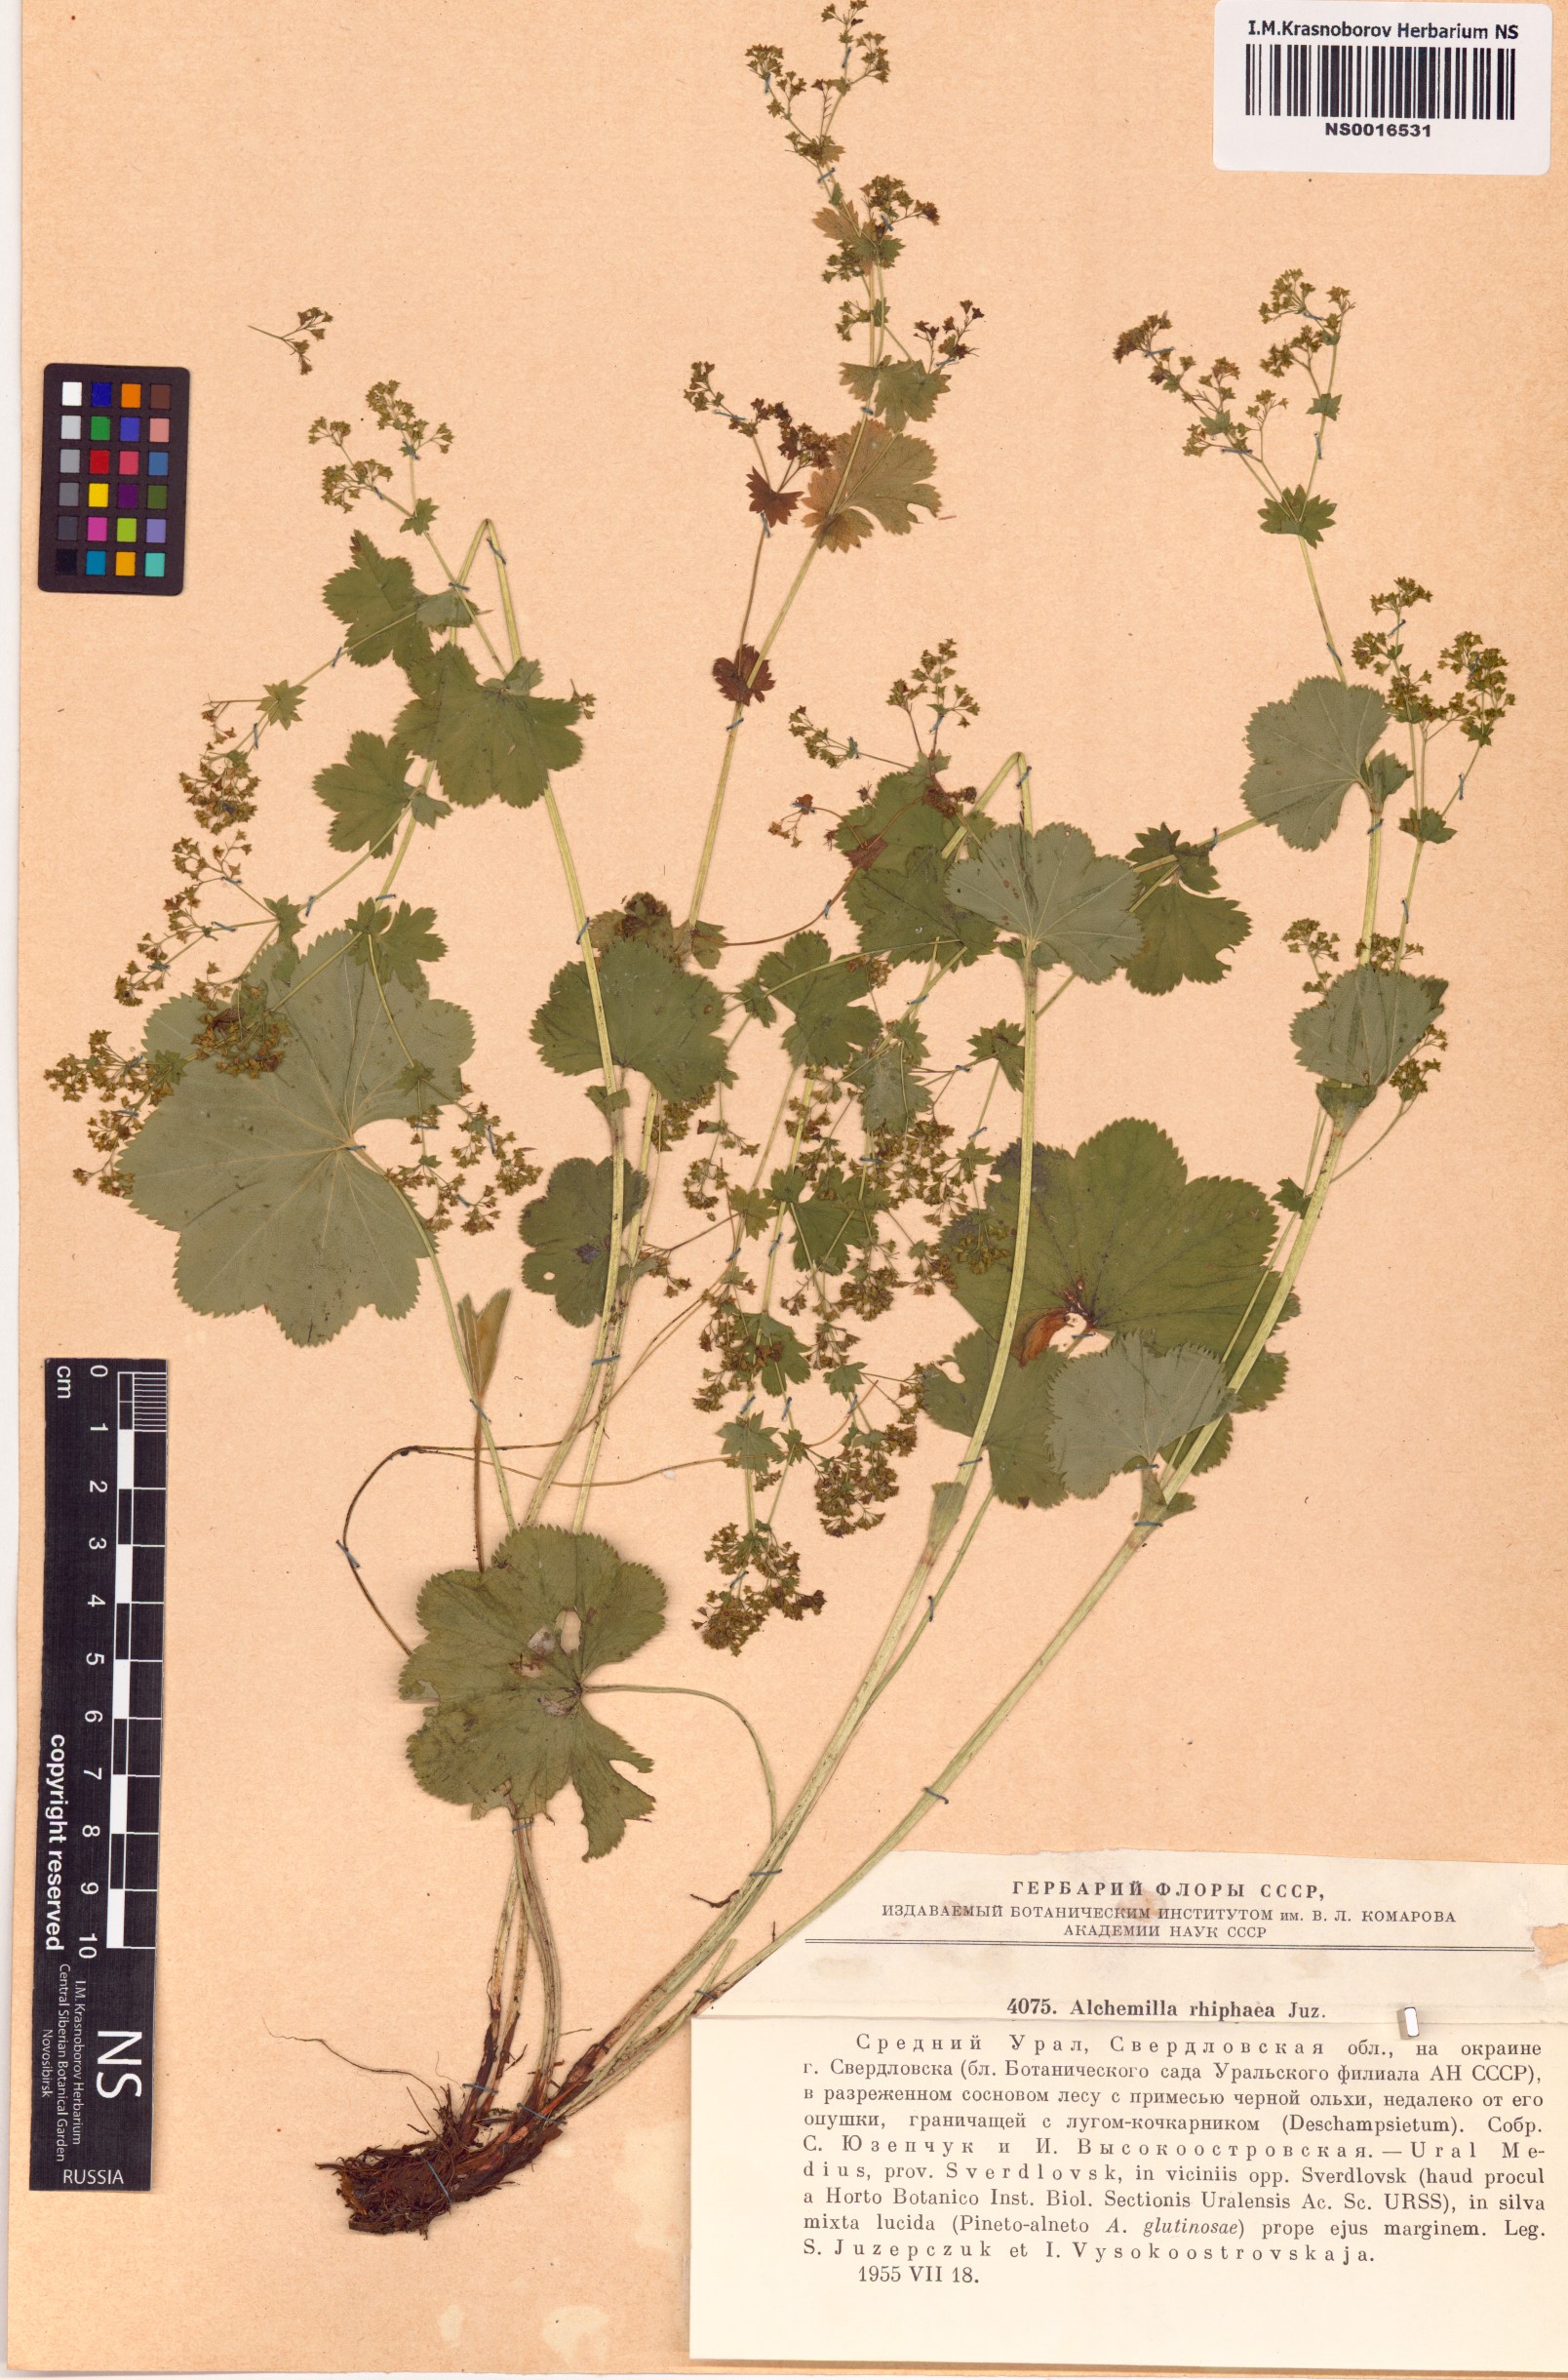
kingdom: Plantae
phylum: Tracheophyta
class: Magnoliopsida
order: Rosales
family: Rosaceae
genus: Alchemilla
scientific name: Alchemilla rhiphaea
